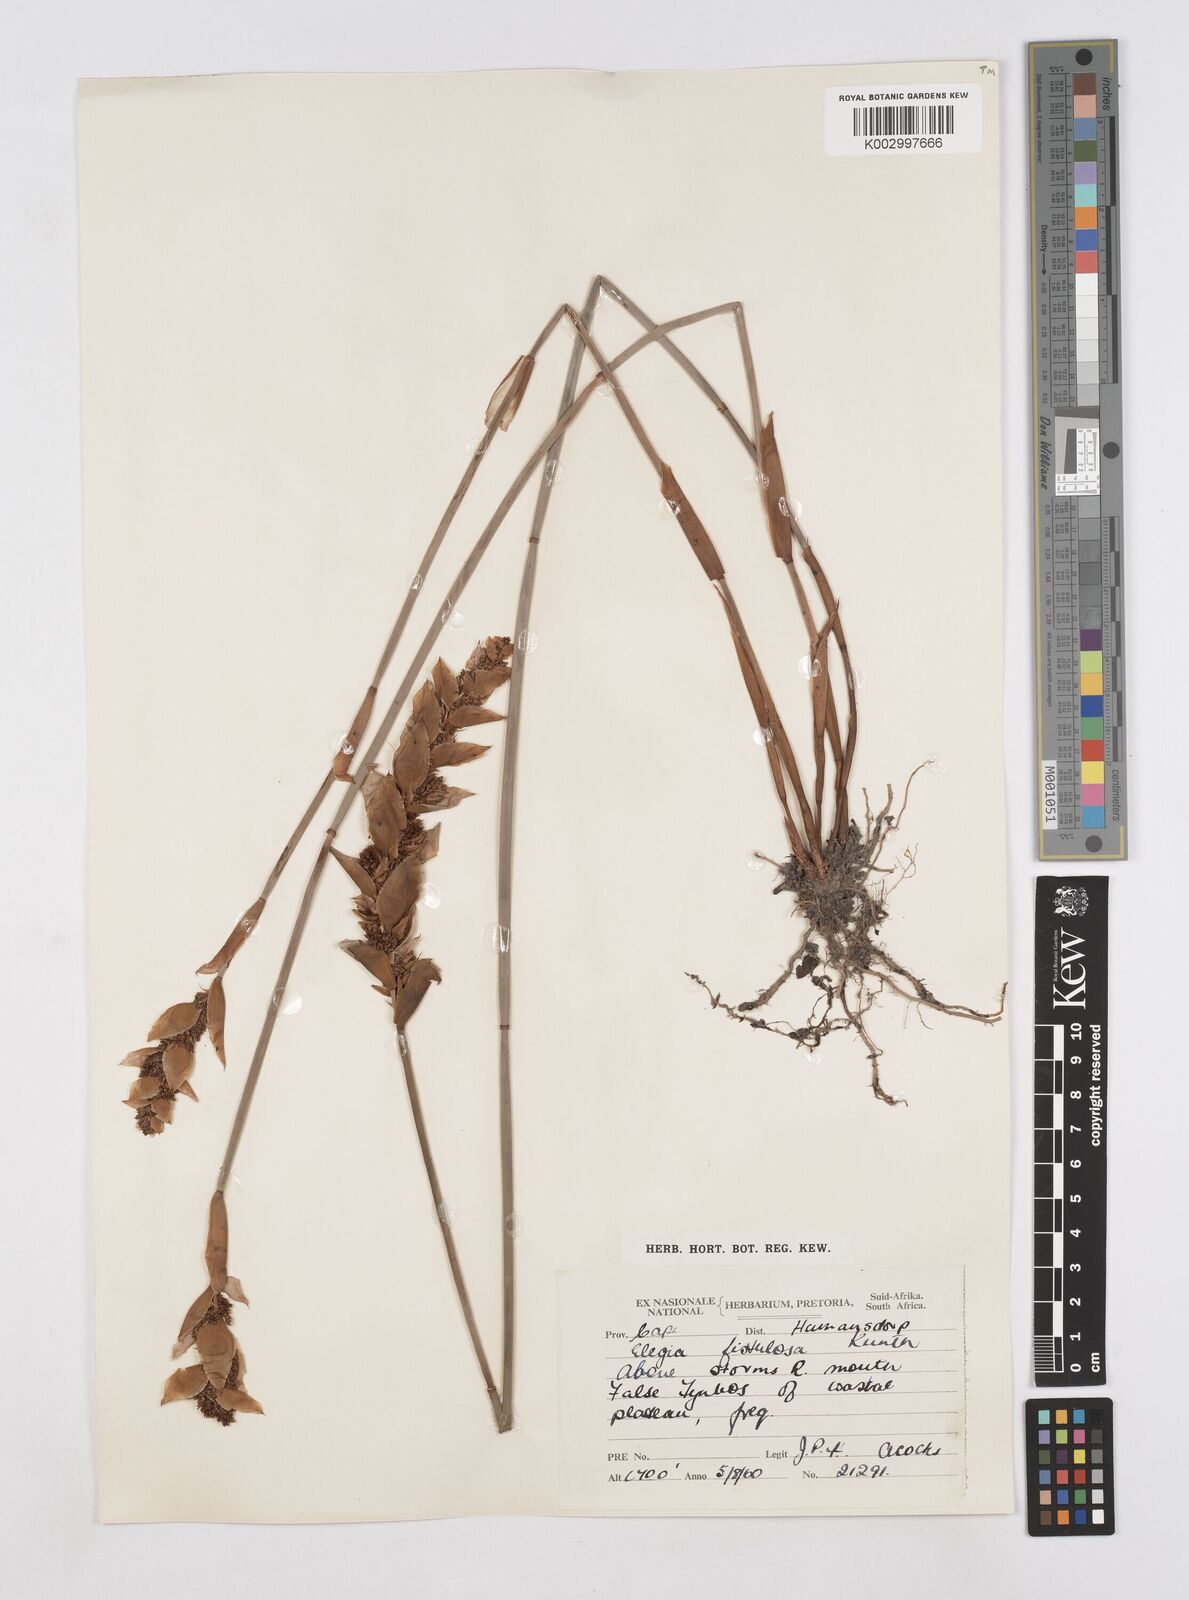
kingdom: Plantae
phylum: Tracheophyta
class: Liliopsida
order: Poales
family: Restionaceae
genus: Elegia
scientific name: Elegia fistulosa
